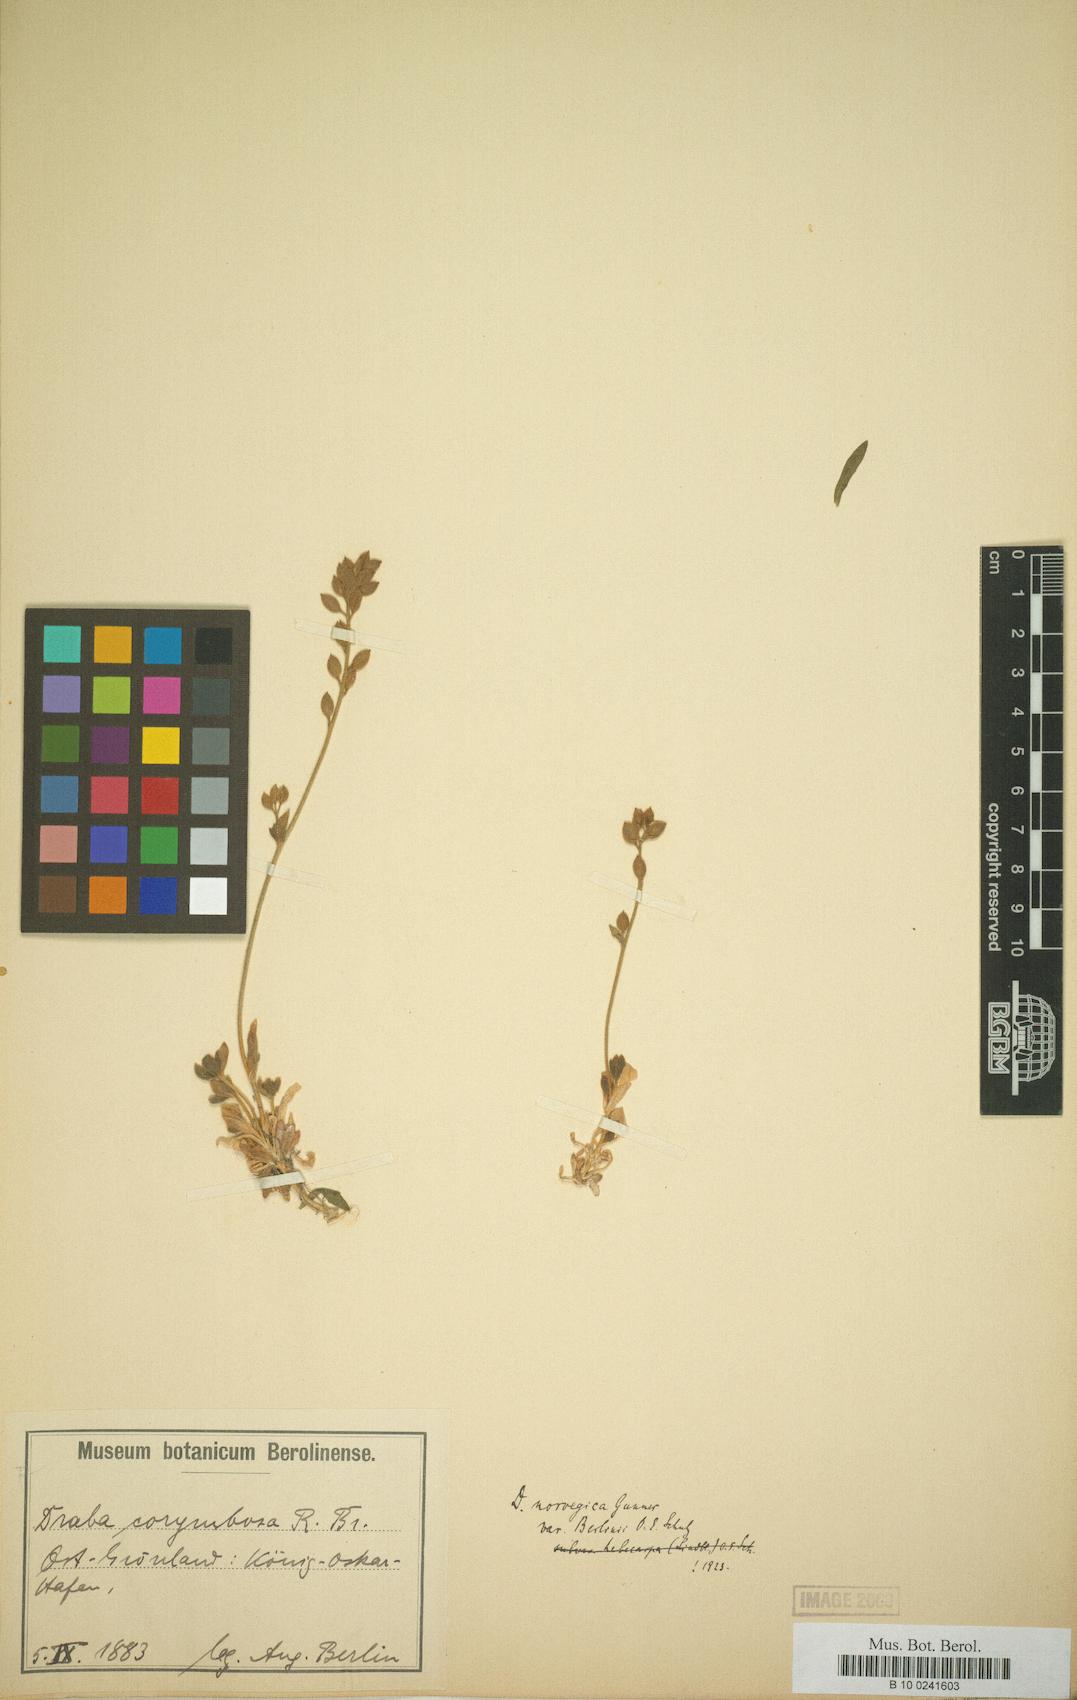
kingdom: Plantae
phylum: Tracheophyta
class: Magnoliopsida
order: Brassicales
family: Brassicaceae
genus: Draba
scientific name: Draba norvegica
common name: Rock whitlowgrass
